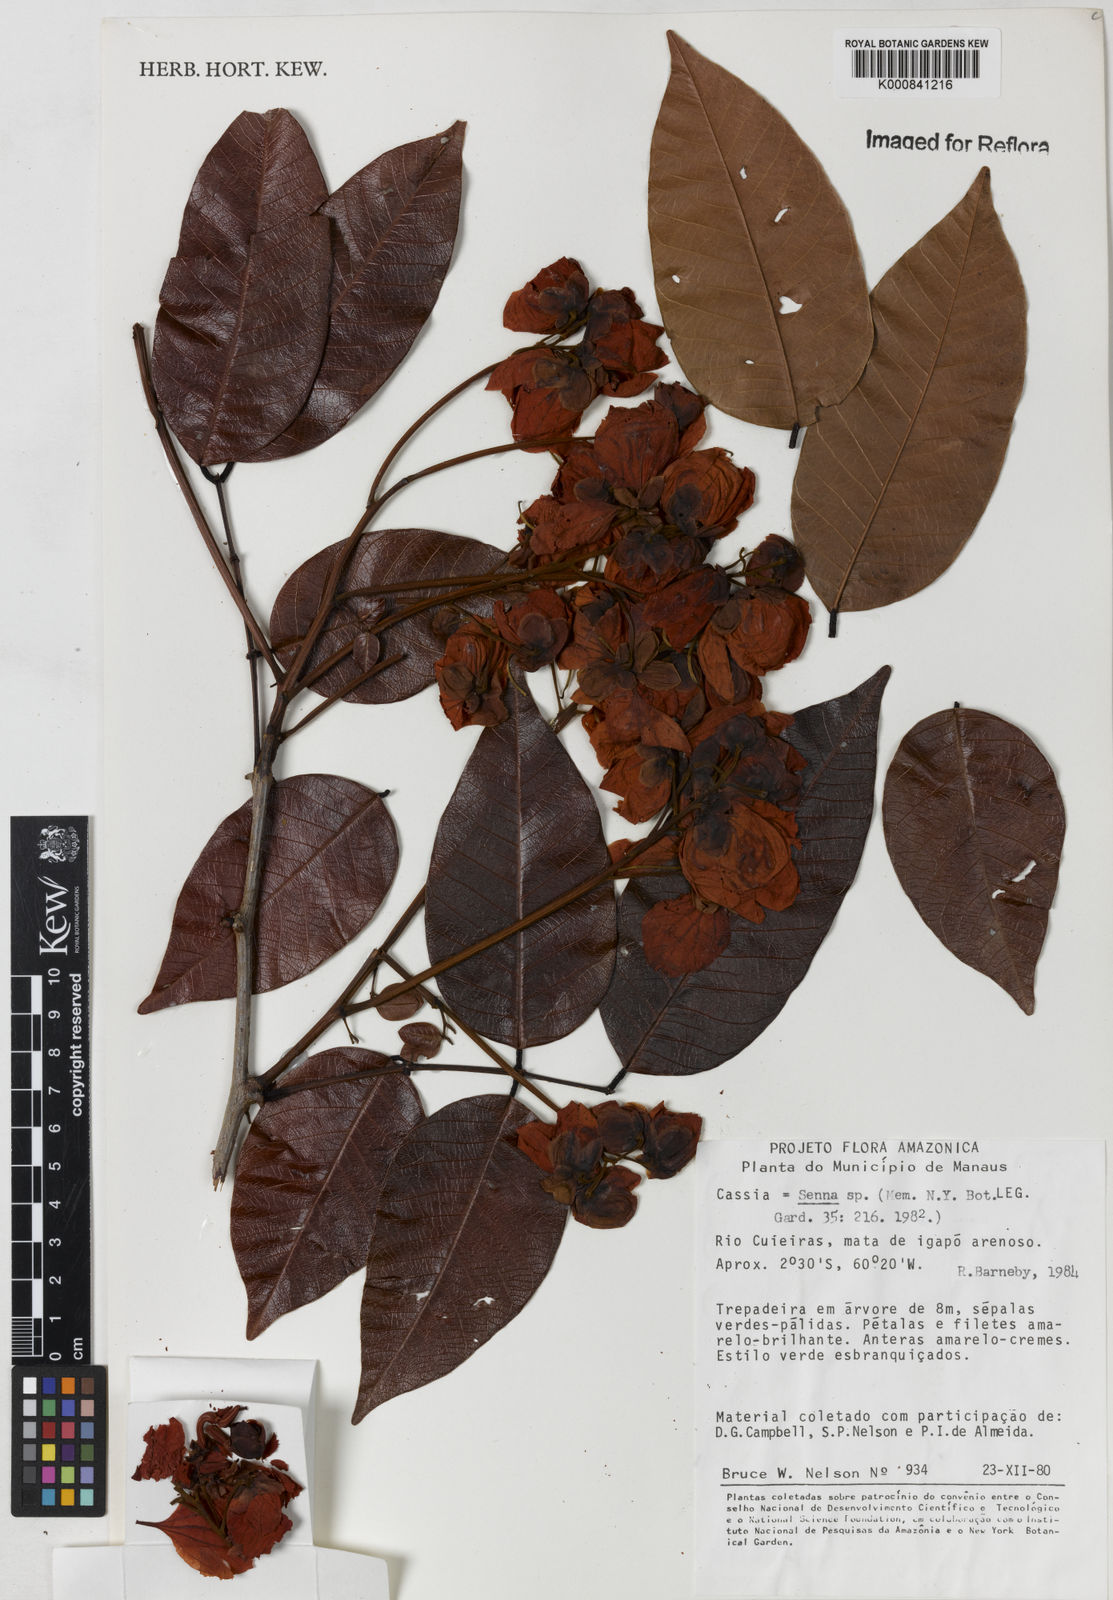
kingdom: Plantae
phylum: Tracheophyta
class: Magnoliopsida
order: Fabales
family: Fabaceae
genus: Senna
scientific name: Senna
